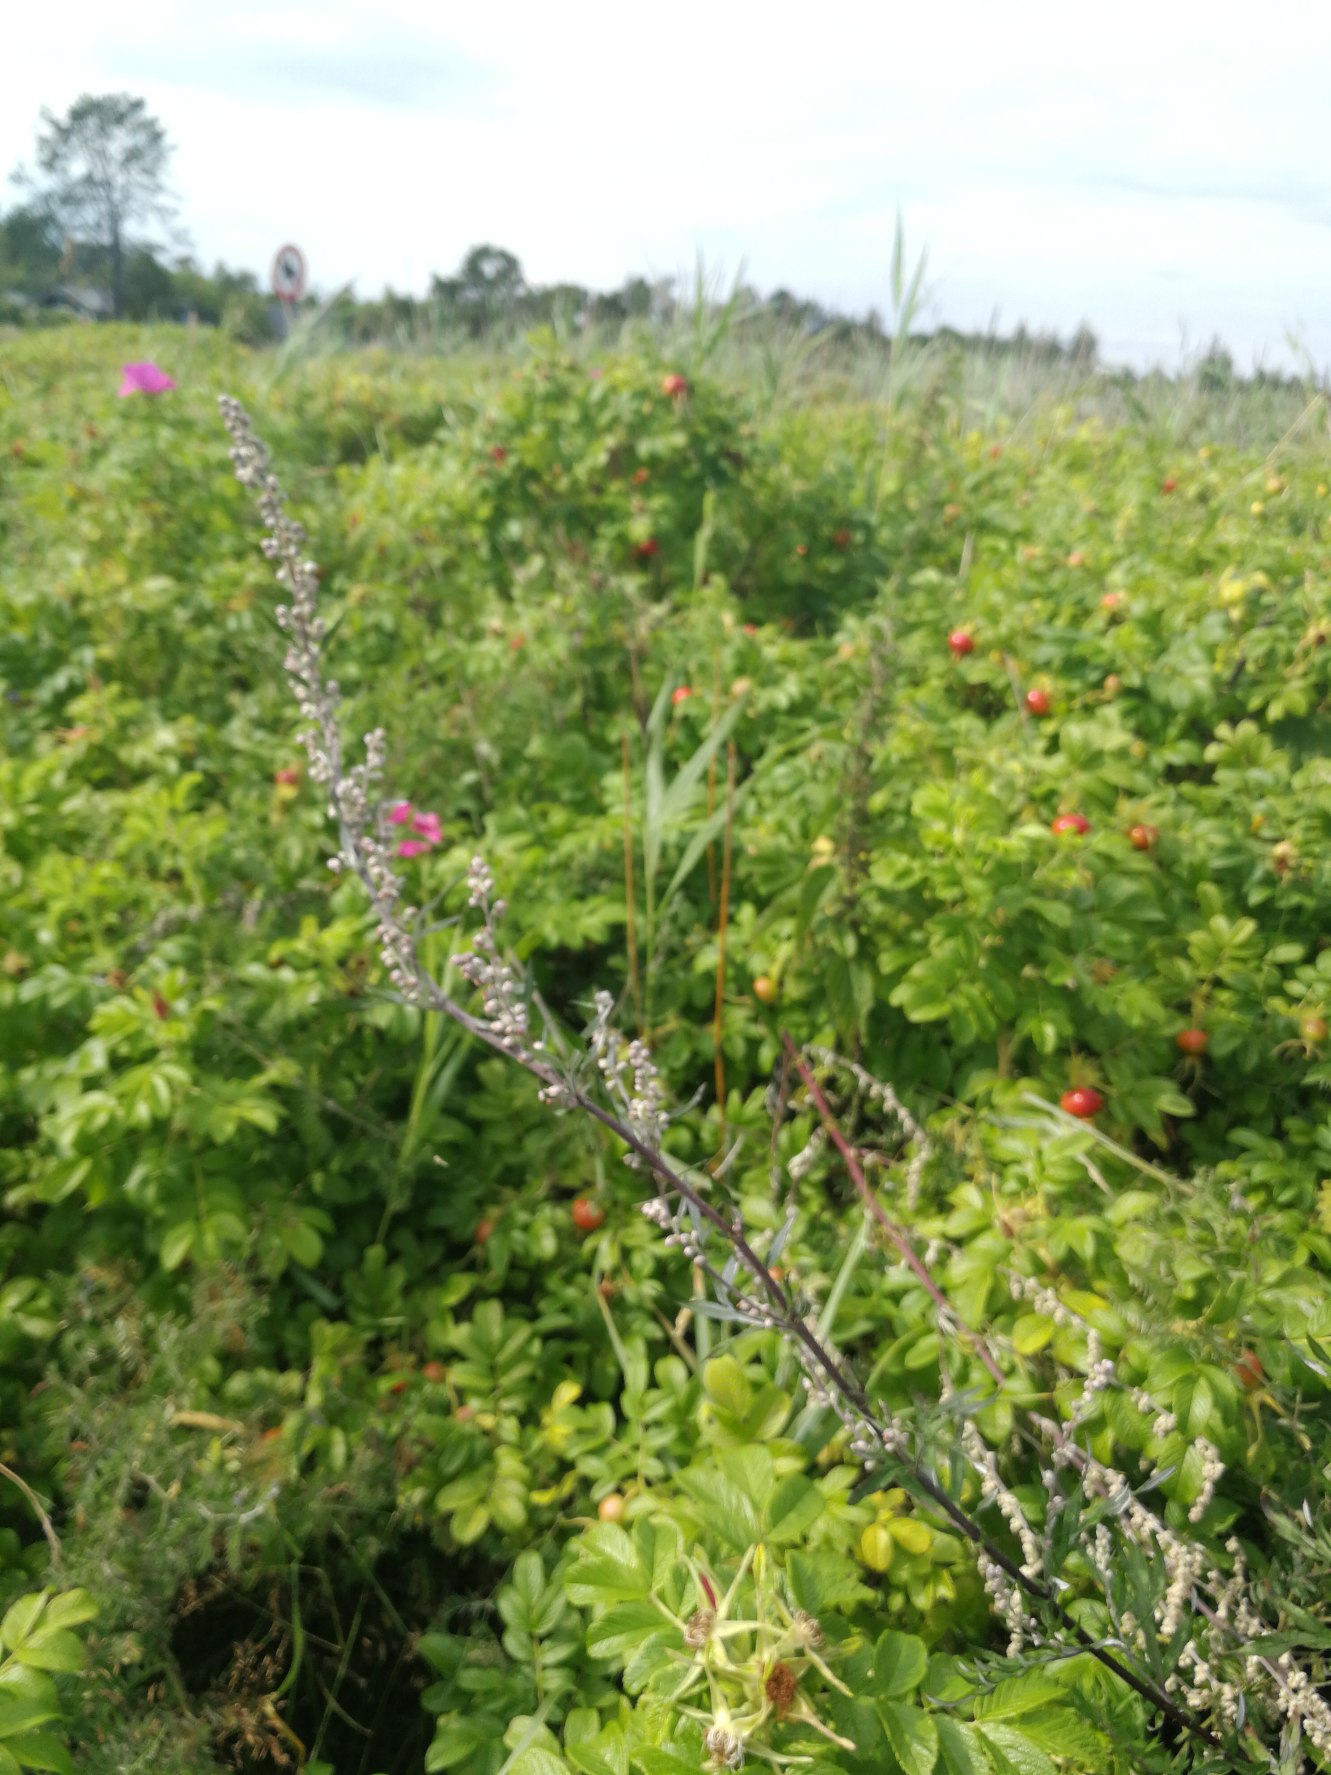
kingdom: Plantae
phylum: Tracheophyta
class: Magnoliopsida
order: Asterales
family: Asteraceae
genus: Artemisia
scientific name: Artemisia vulgaris
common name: Grå-bynke
